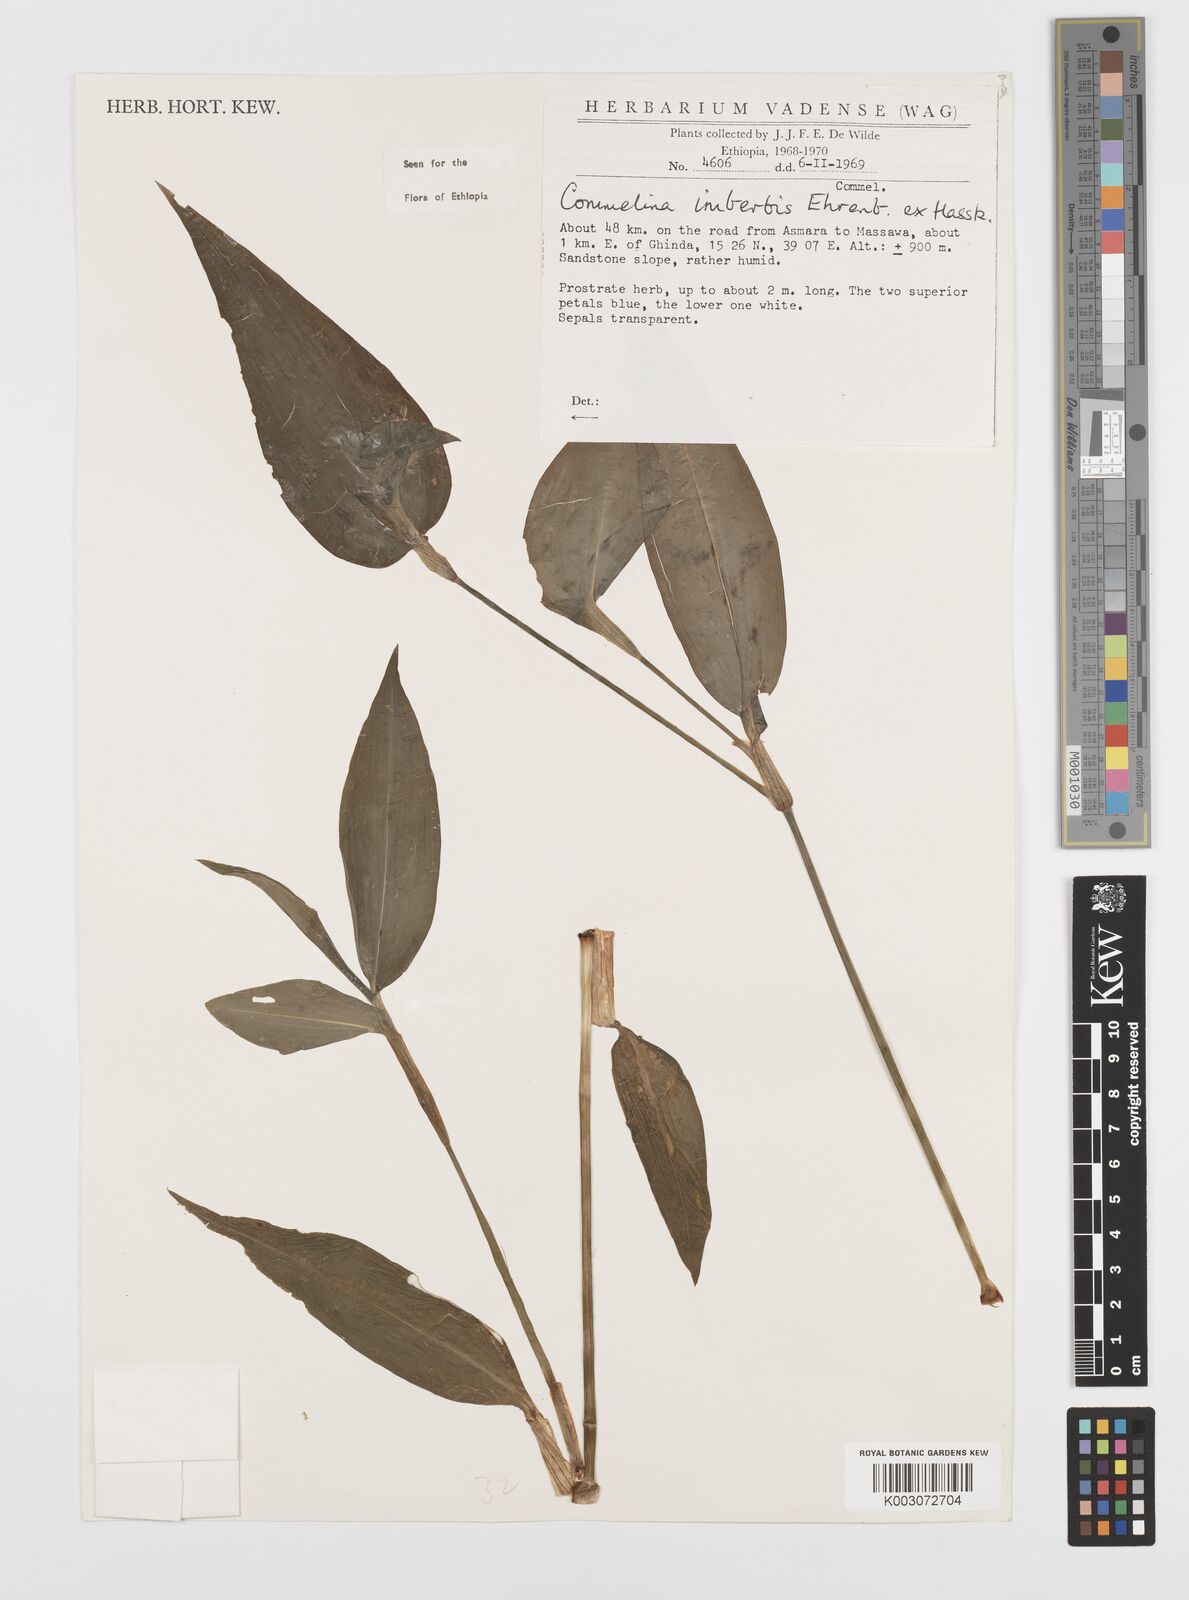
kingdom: Plantae
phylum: Tracheophyta
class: Liliopsida
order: Commelinales
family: Commelinaceae
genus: Commelina
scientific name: Commelina imberbis
